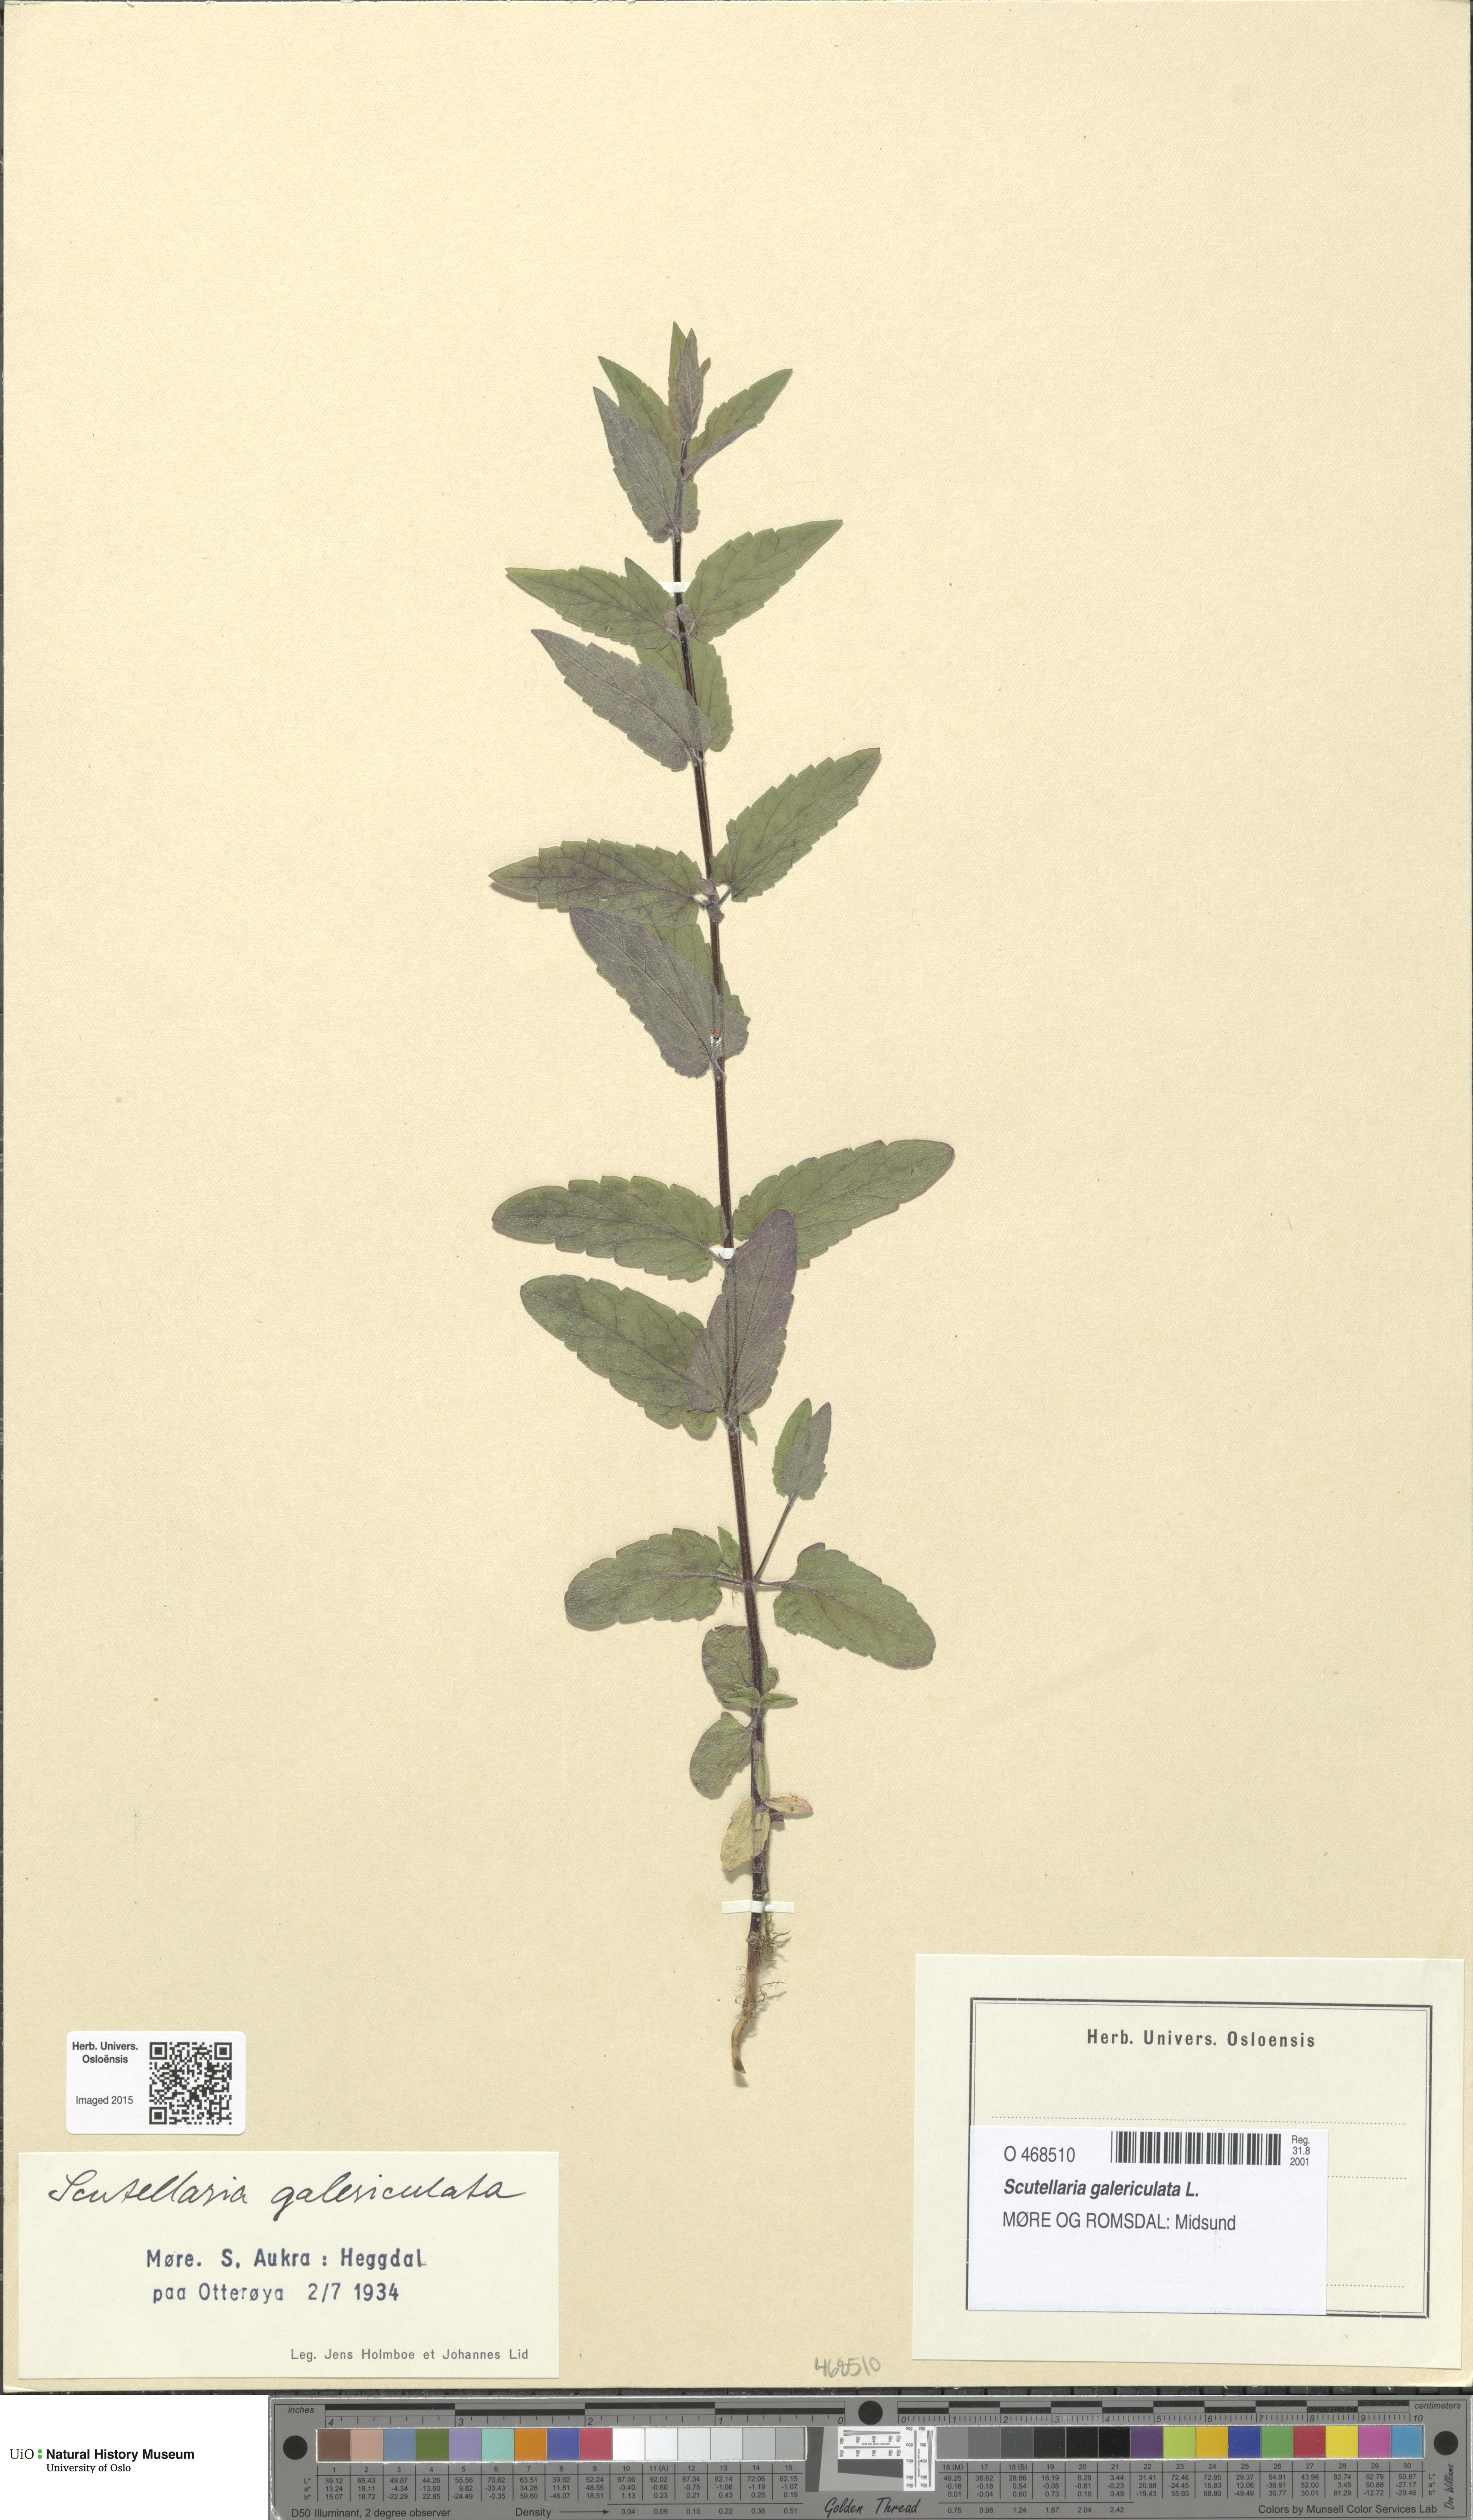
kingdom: Plantae
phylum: Tracheophyta
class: Magnoliopsida
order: Lamiales
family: Lamiaceae
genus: Scutellaria
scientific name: Scutellaria galericulata
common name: Skullcap
